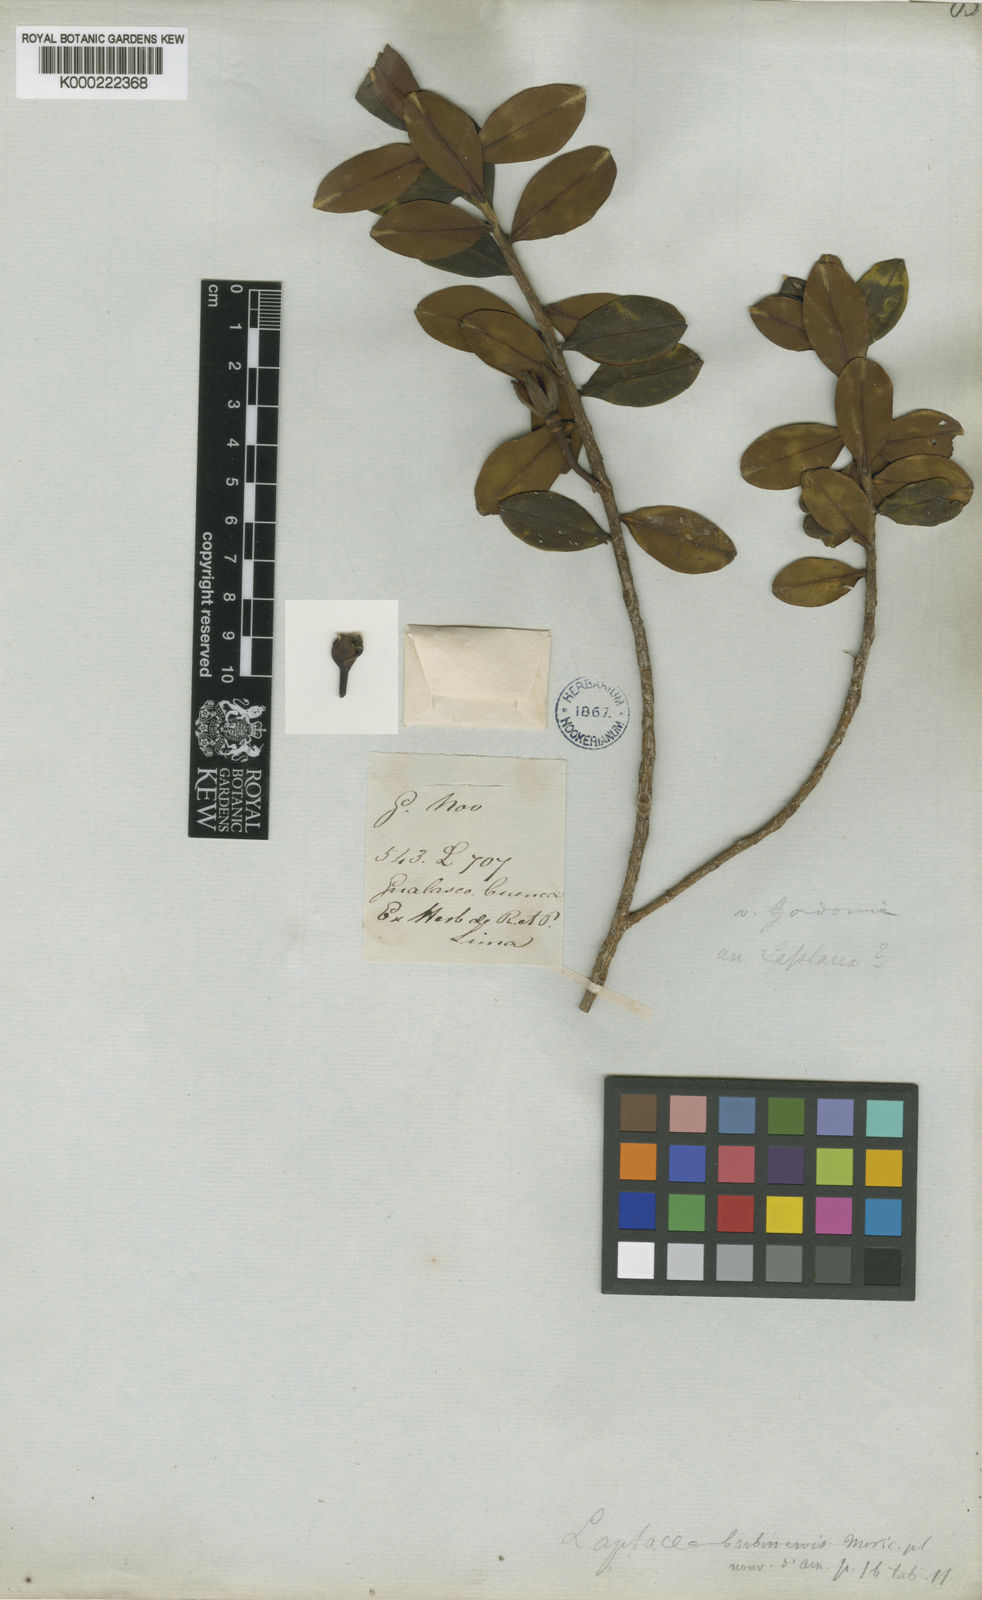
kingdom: Plantae
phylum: Tracheophyta
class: Magnoliopsida
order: Ericales
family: Theaceae
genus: Gordonia
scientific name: Gordonia barbinervis
